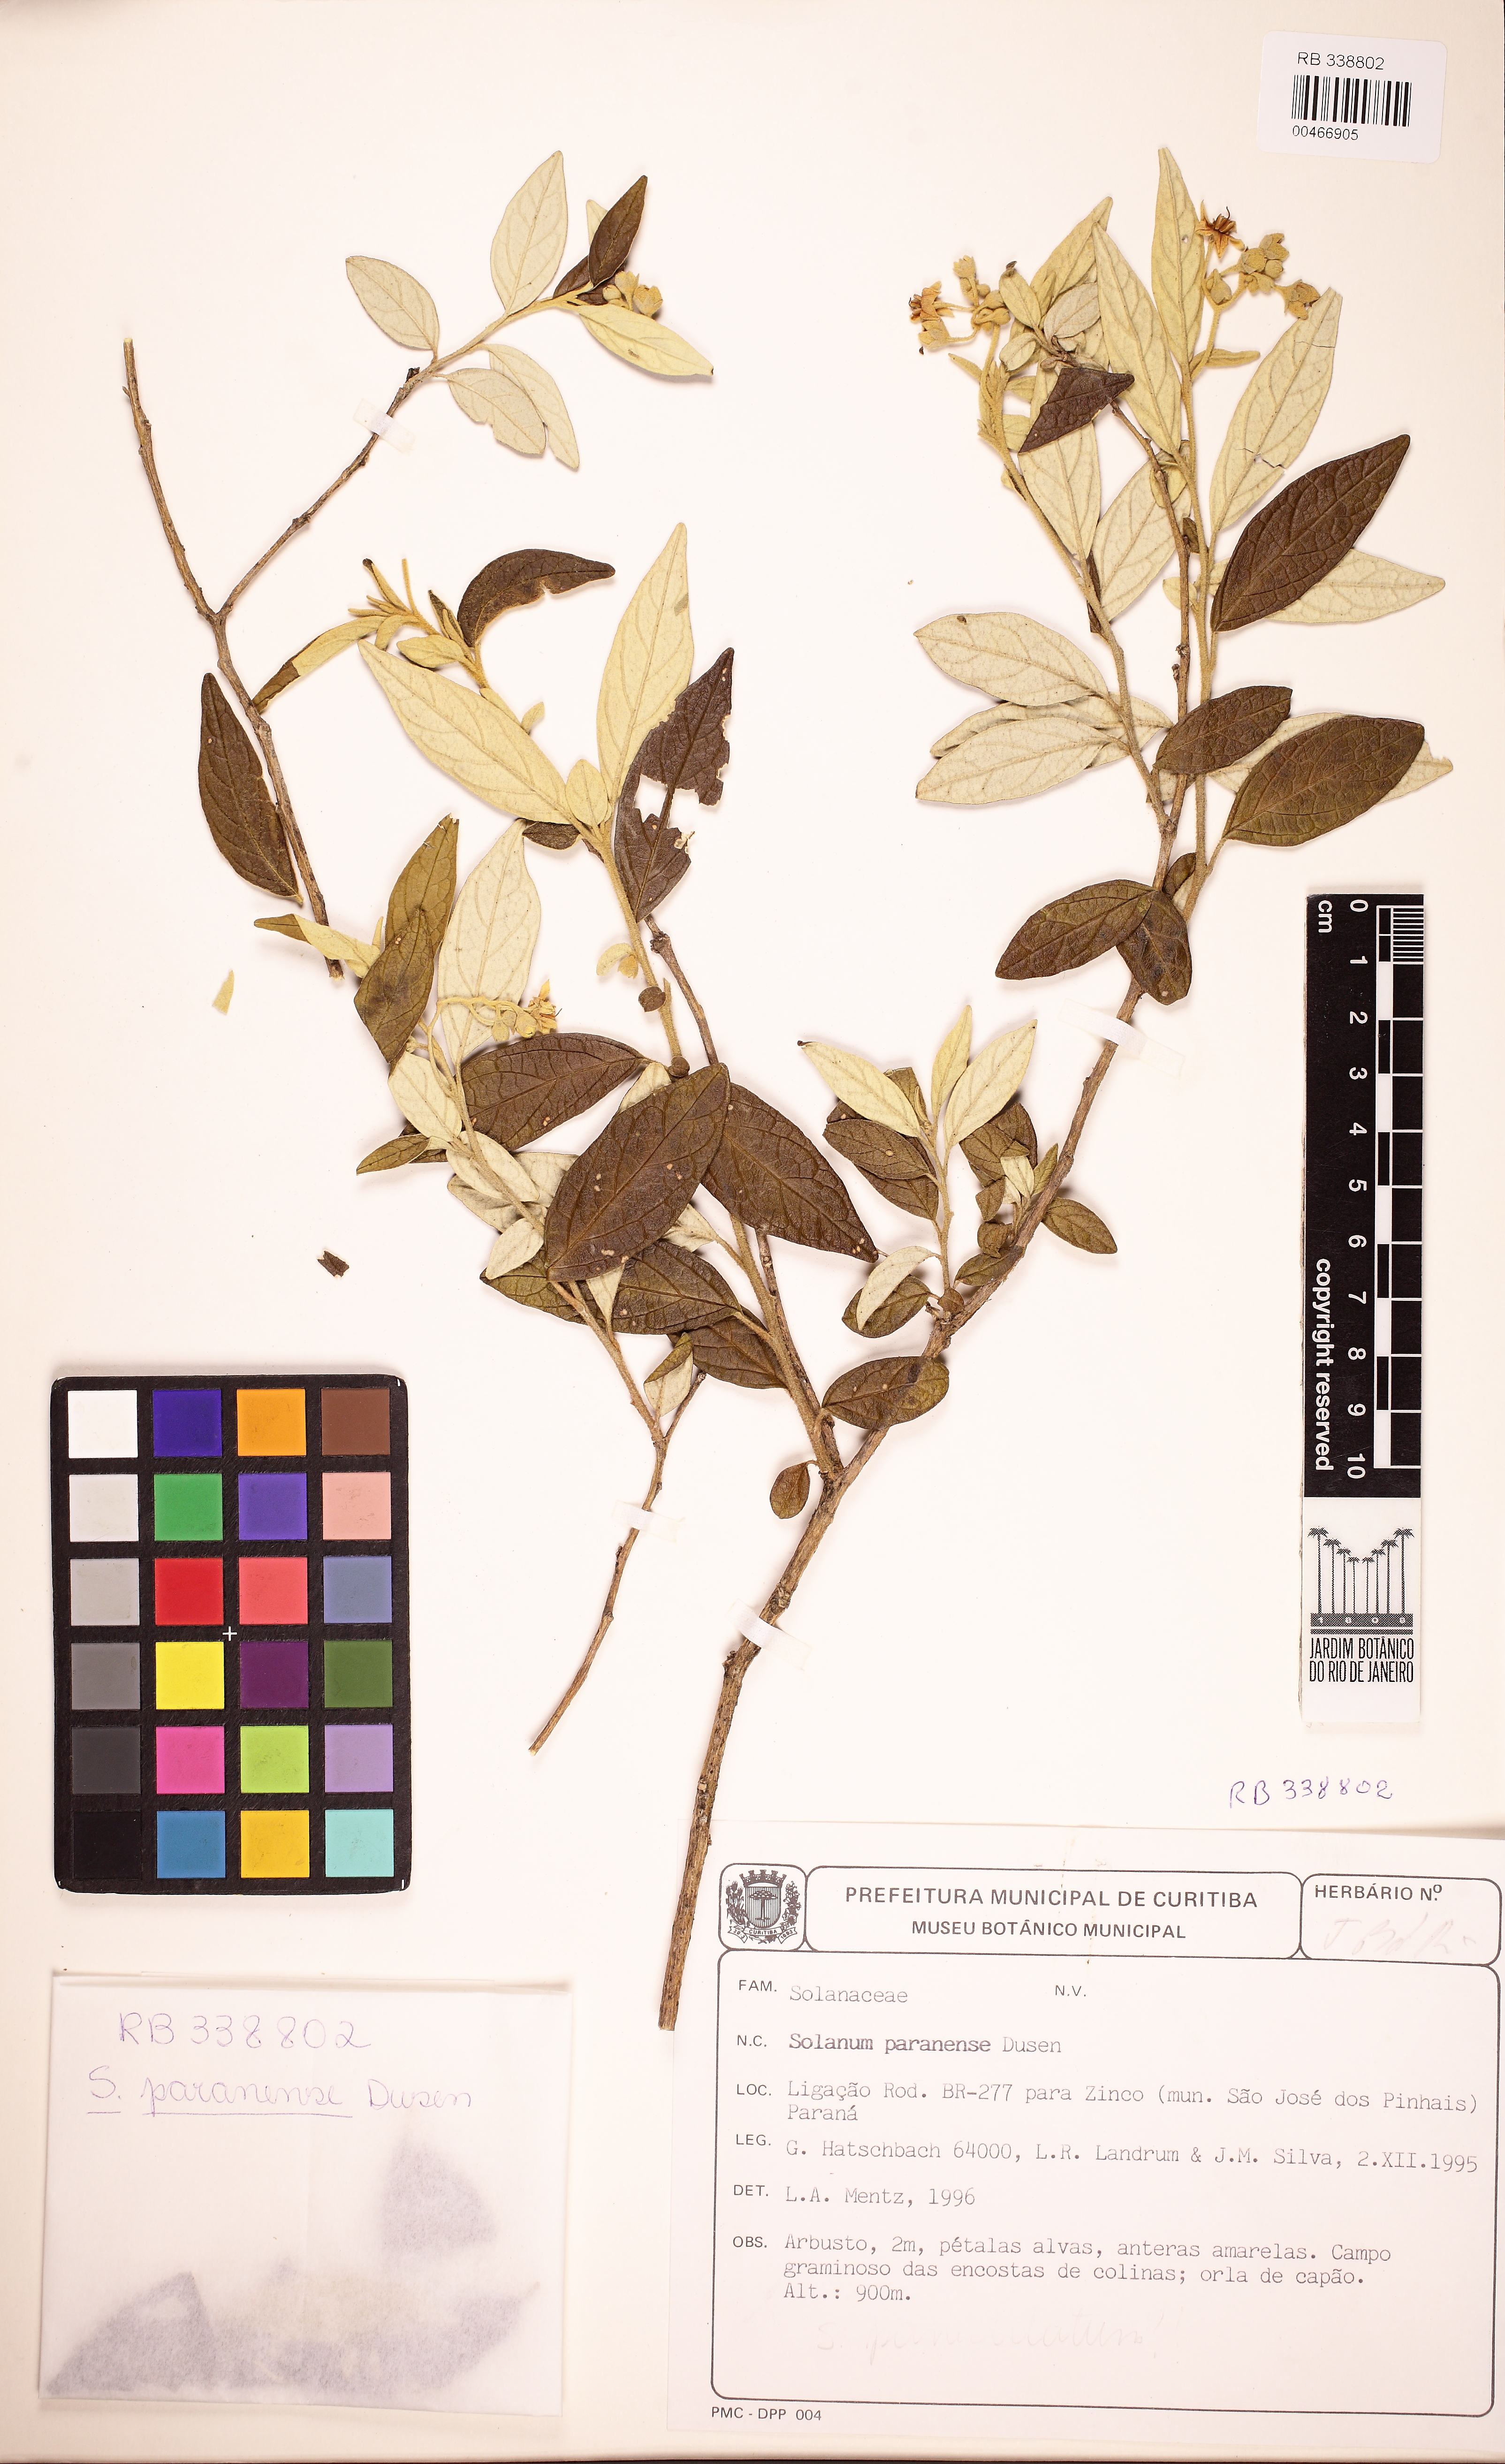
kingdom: Plantae
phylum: Tracheophyta
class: Magnoliopsida
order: Solanales
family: Solanaceae
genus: Solanum
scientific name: Solanum paranense
